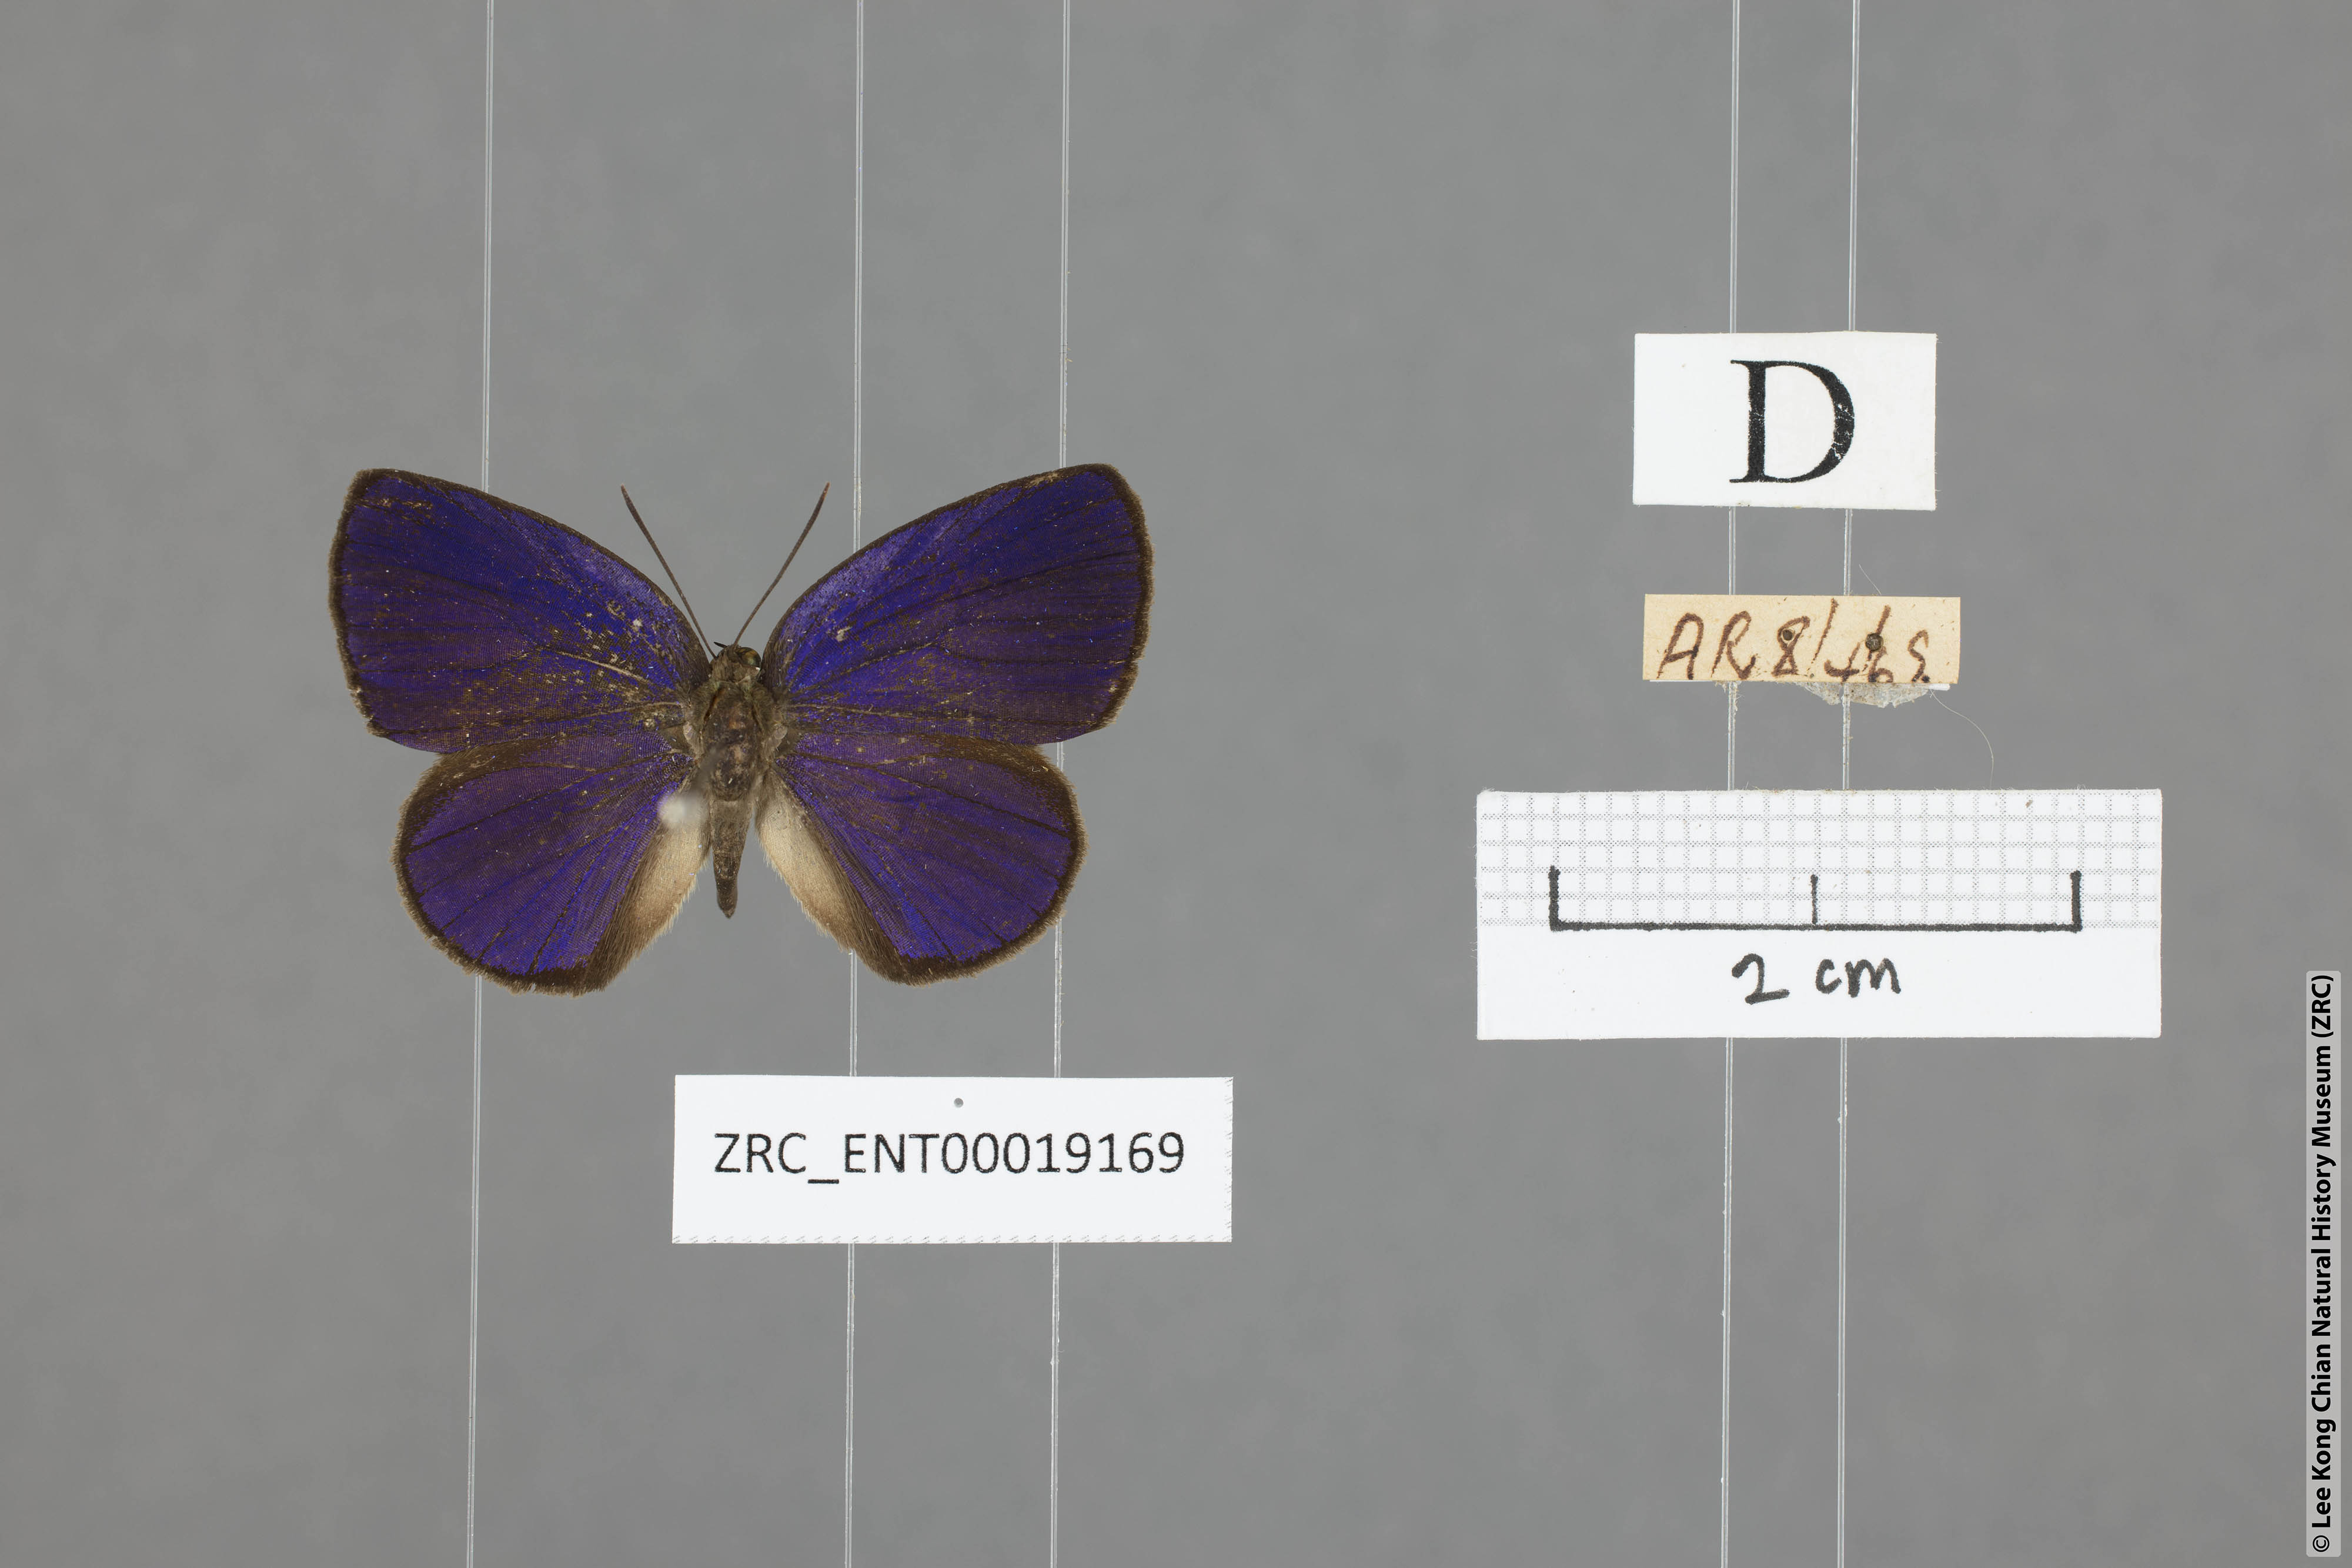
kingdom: Animalia
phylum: Arthropoda
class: Insecta
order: Lepidoptera
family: Lycaenidae
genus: Arhopala
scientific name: Arhopala antimuta
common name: Small tailless oakblue
